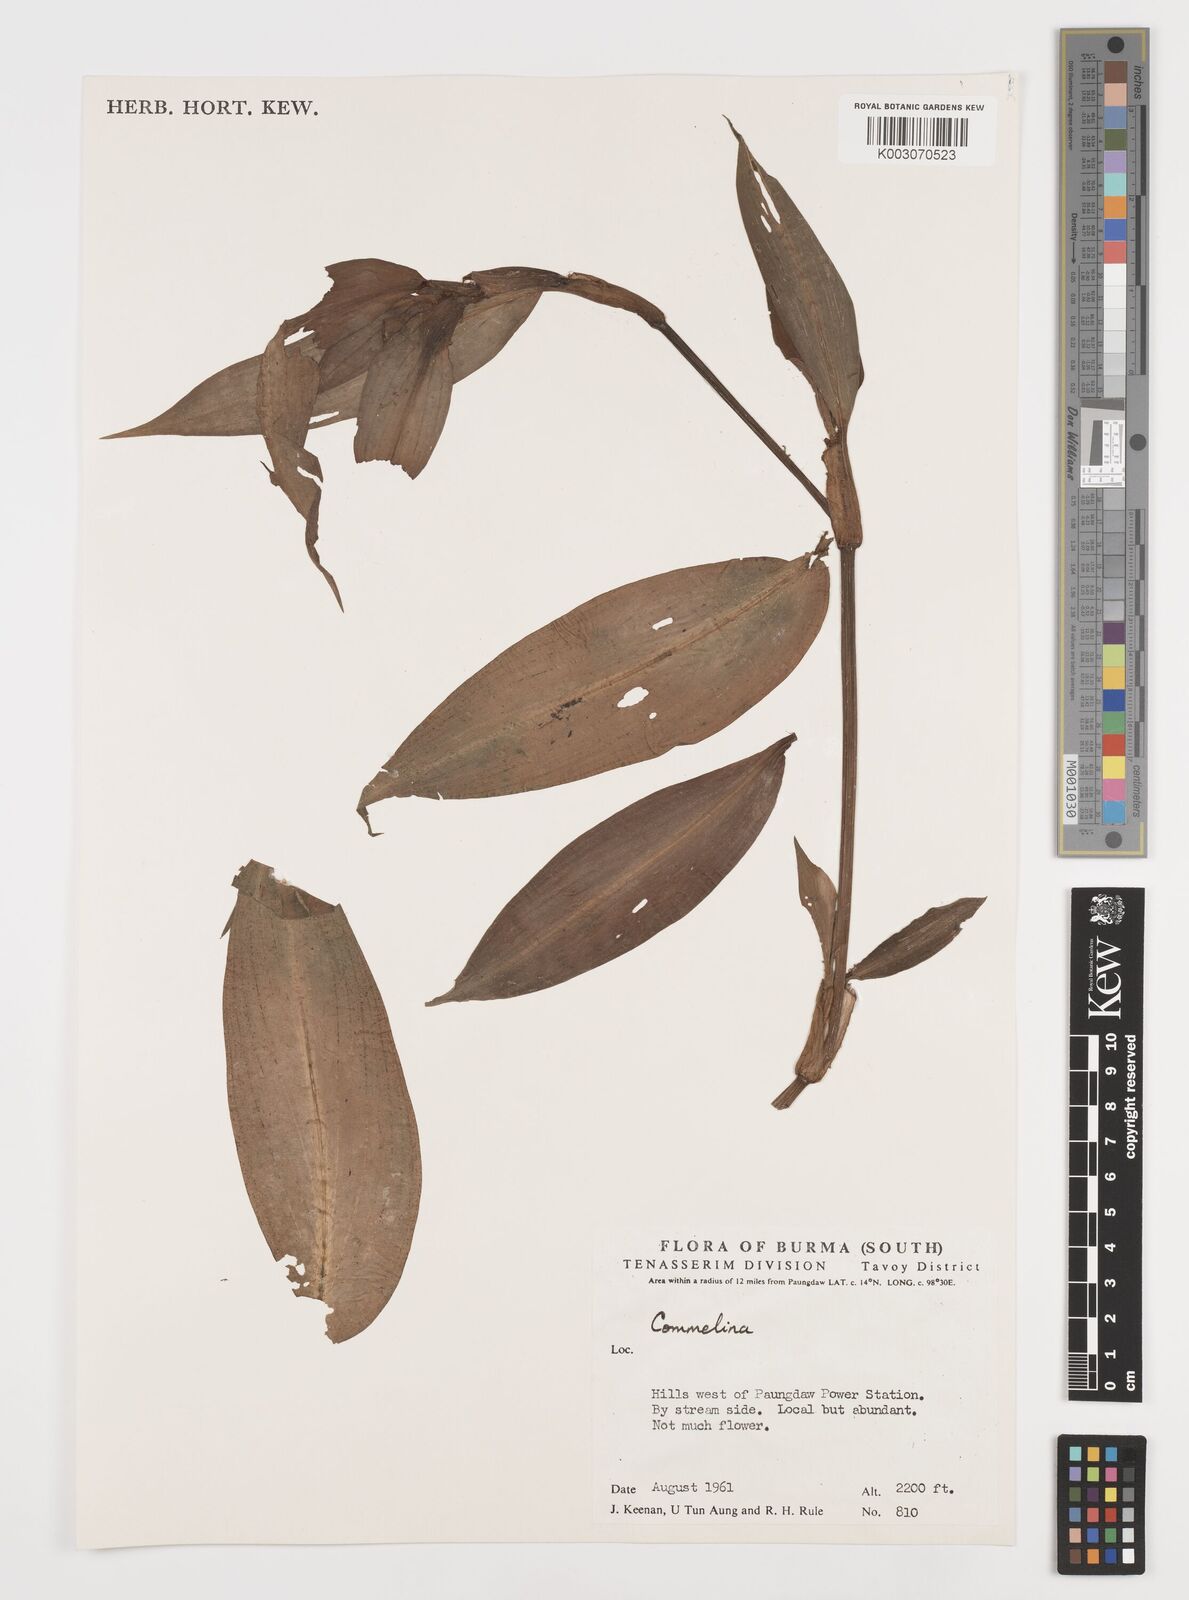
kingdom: Plantae
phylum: Tracheophyta
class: Liliopsida
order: Commelinales
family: Commelinaceae
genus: Commelina
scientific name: Commelina
